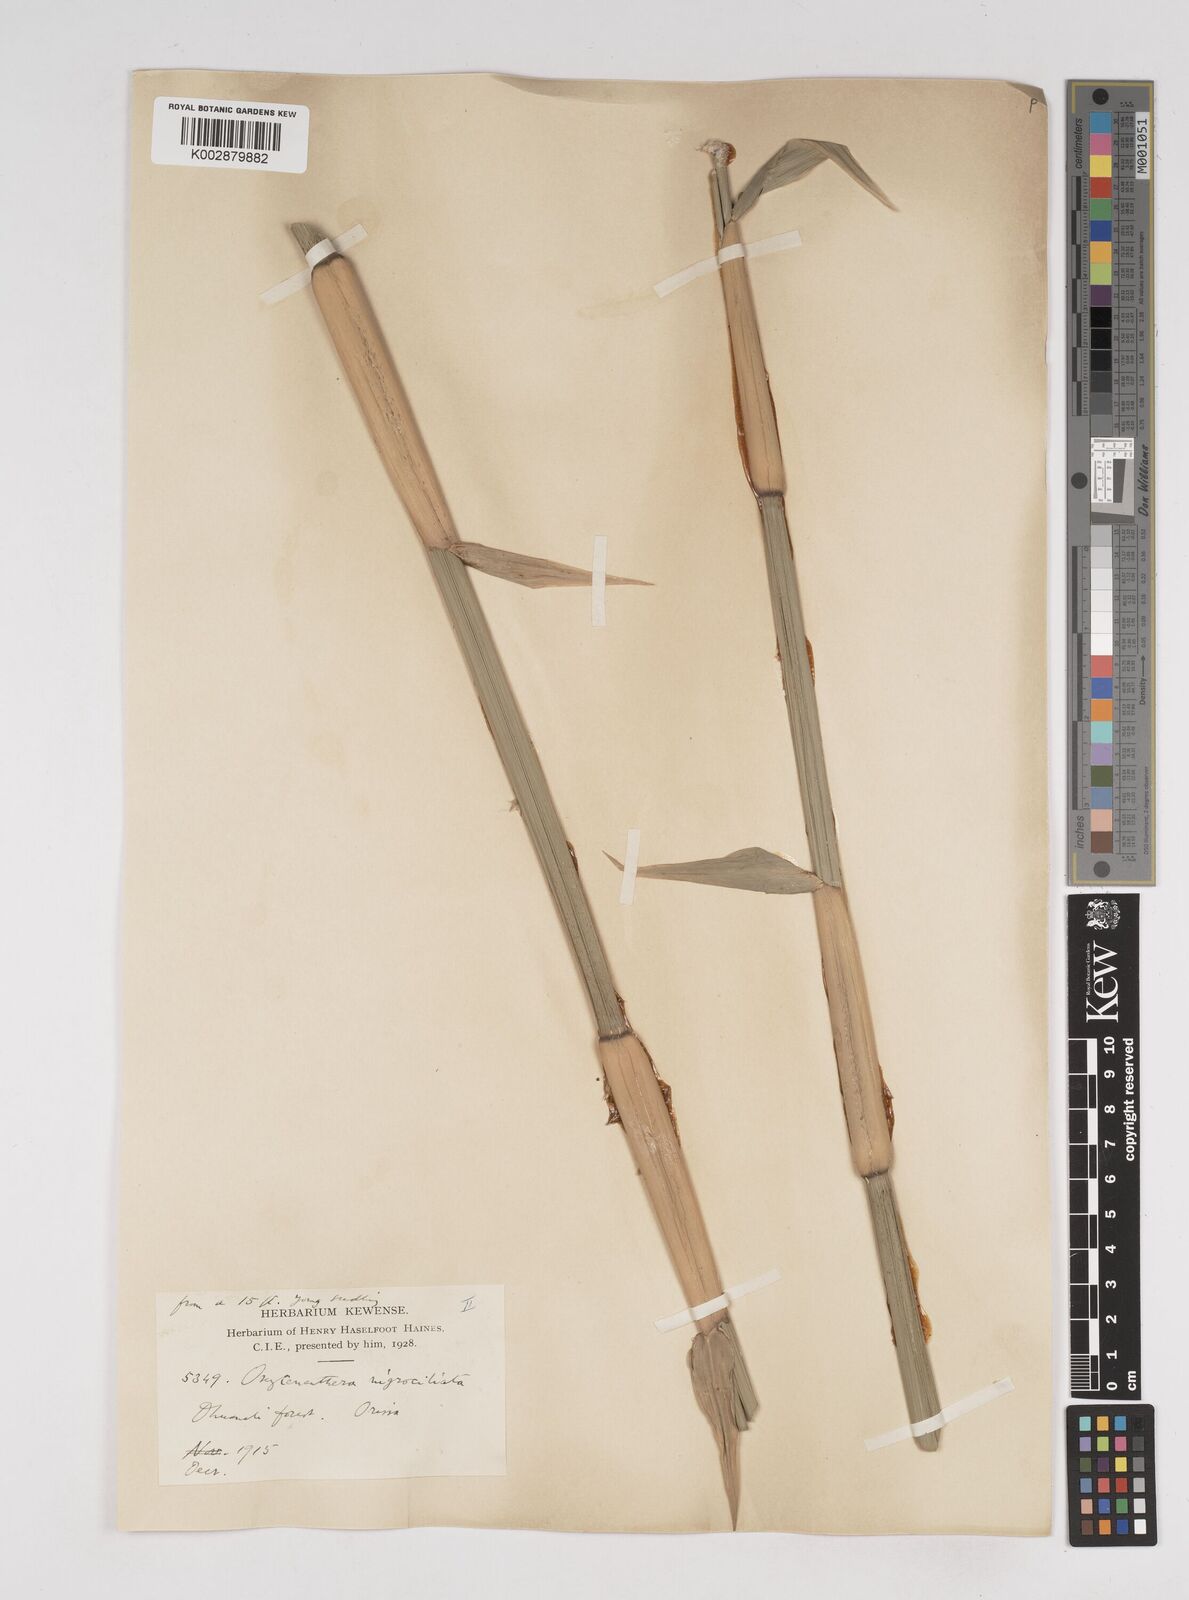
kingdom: Plantae
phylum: Tracheophyta
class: Liliopsida
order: Poales
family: Poaceae
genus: Gigantochloa
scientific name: Gigantochloa
